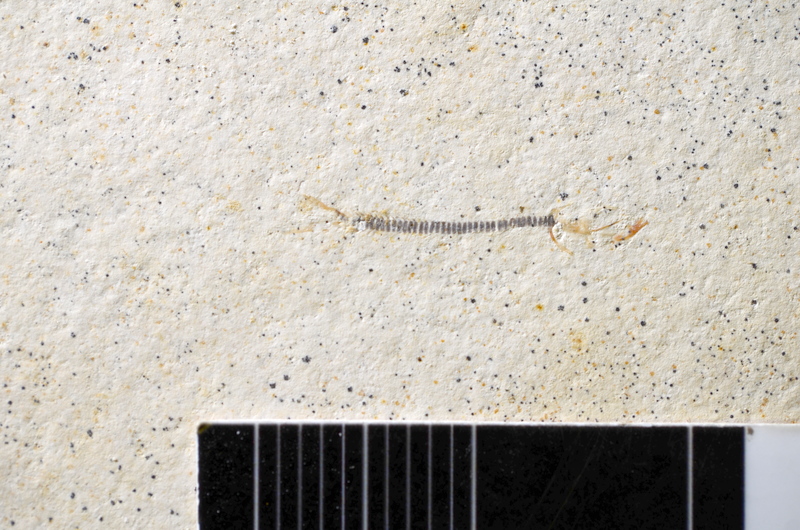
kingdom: Animalia
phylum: Chordata
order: Salmoniformes
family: Orthogonikleithridae
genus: Orthogonikleithrus
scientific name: Orthogonikleithrus hoelli
